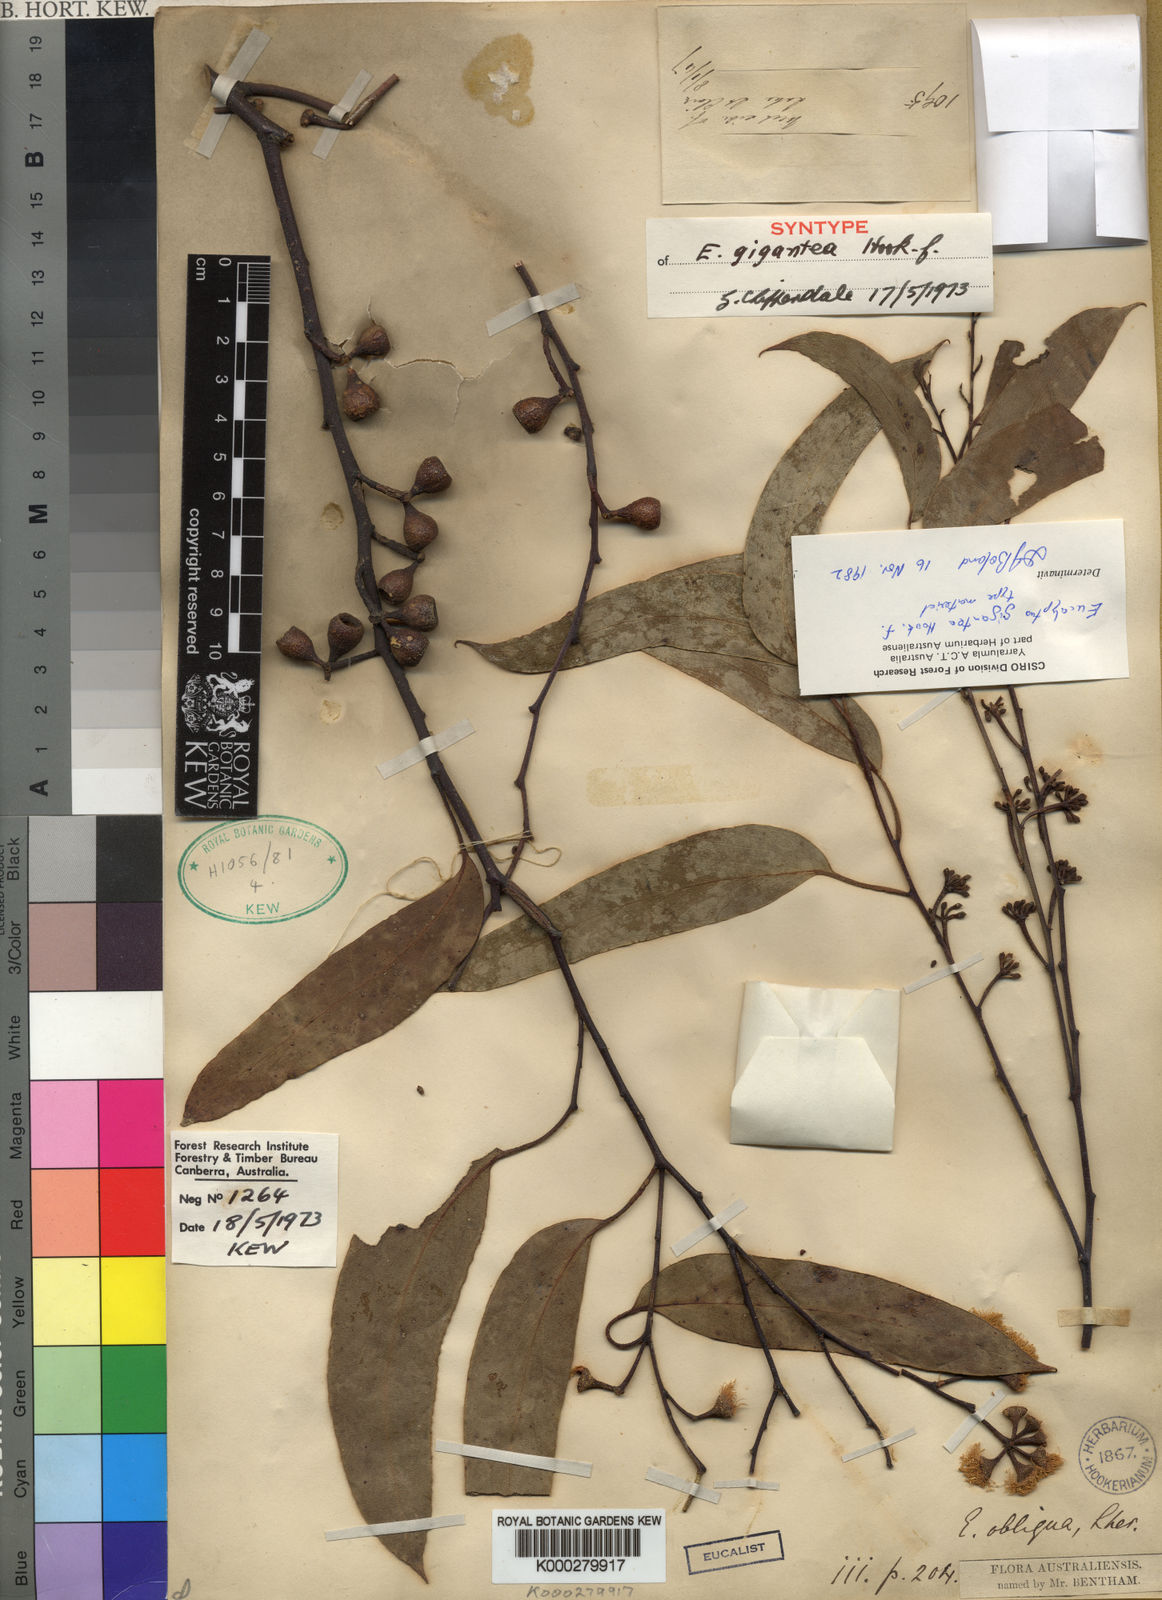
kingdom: Plantae
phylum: Tracheophyta
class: Magnoliopsida
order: Myrtales
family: Myrtaceae
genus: Eucalyptus
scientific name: Eucalyptus delegatensis
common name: Alpine-ash
